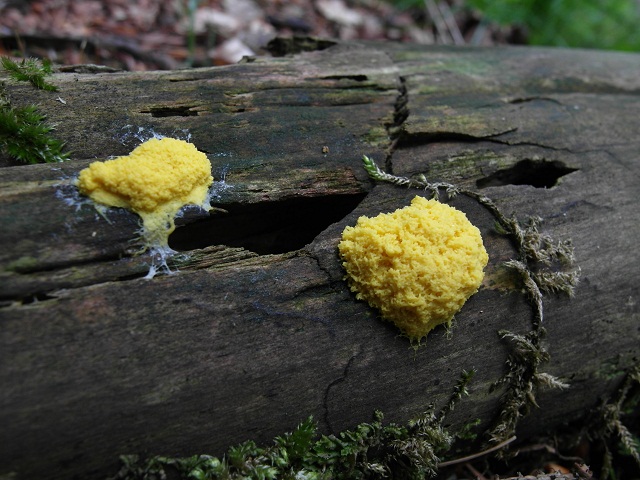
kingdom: Protozoa
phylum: Mycetozoa
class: Myxomycetes
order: Physarales
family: Physaraceae
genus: Fuligo
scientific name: Fuligo septica
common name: gul troldsmør
